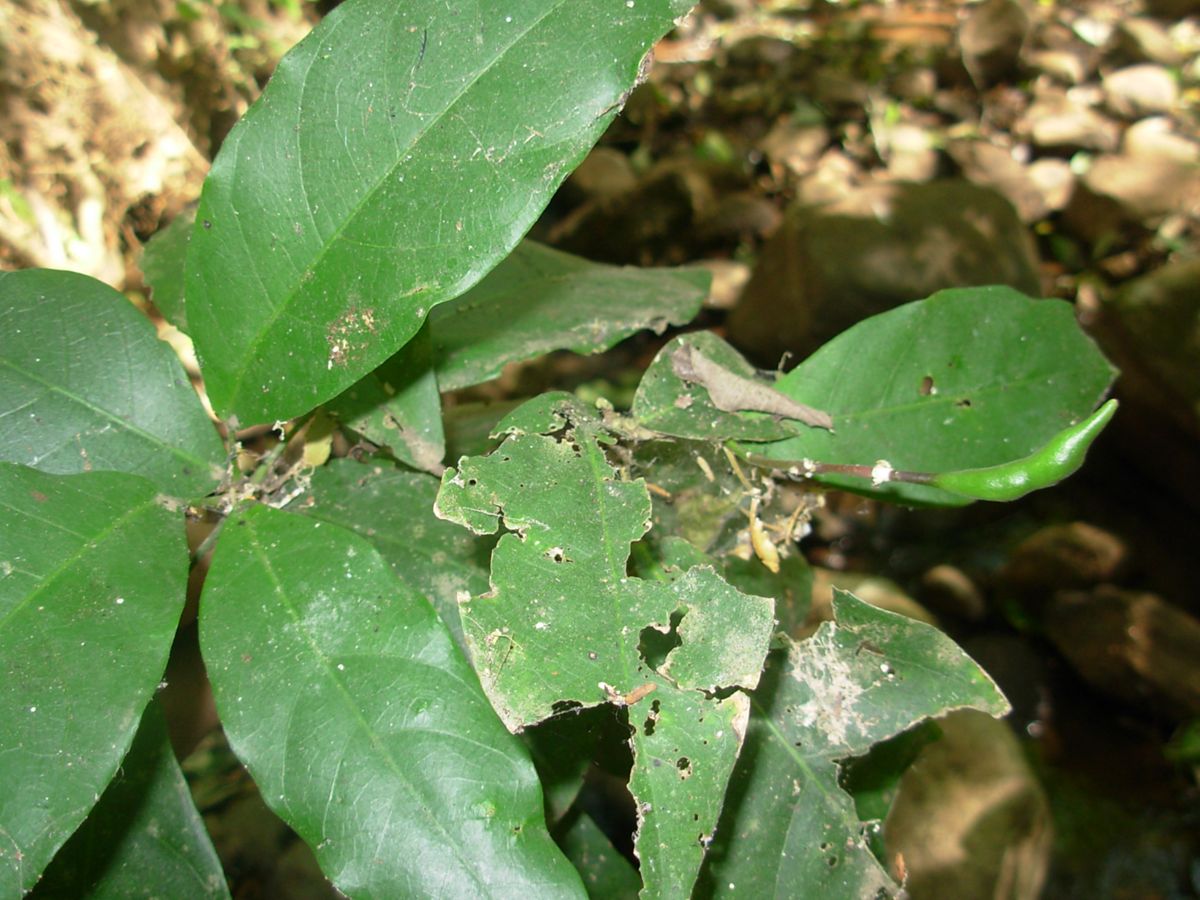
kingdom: Plantae
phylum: Tracheophyta
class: Magnoliopsida
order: Brassicales
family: Capparaceae
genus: Capparidastrum
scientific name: Capparidastrum frondosum
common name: Church blossom
